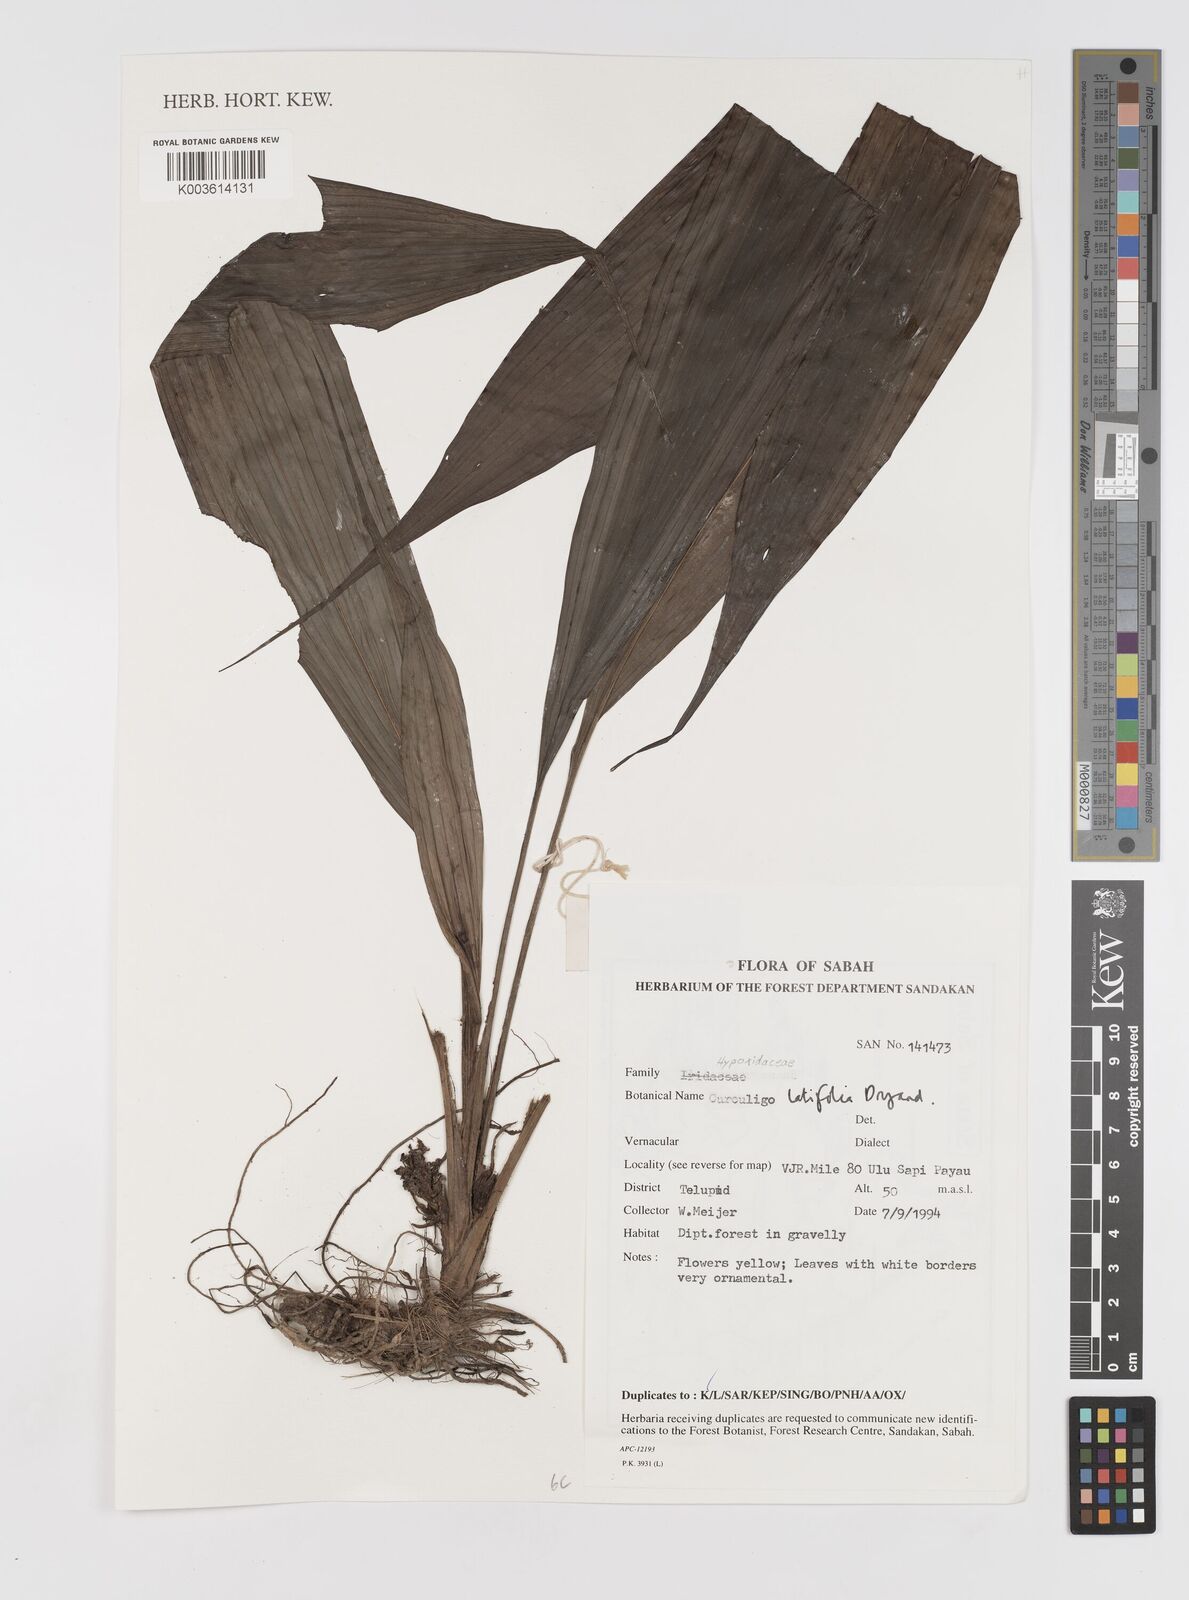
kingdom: Plantae
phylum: Tracheophyta
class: Liliopsida
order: Asparagales
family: Hypoxidaceae
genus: Curculigo
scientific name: Curculigo latifolia
